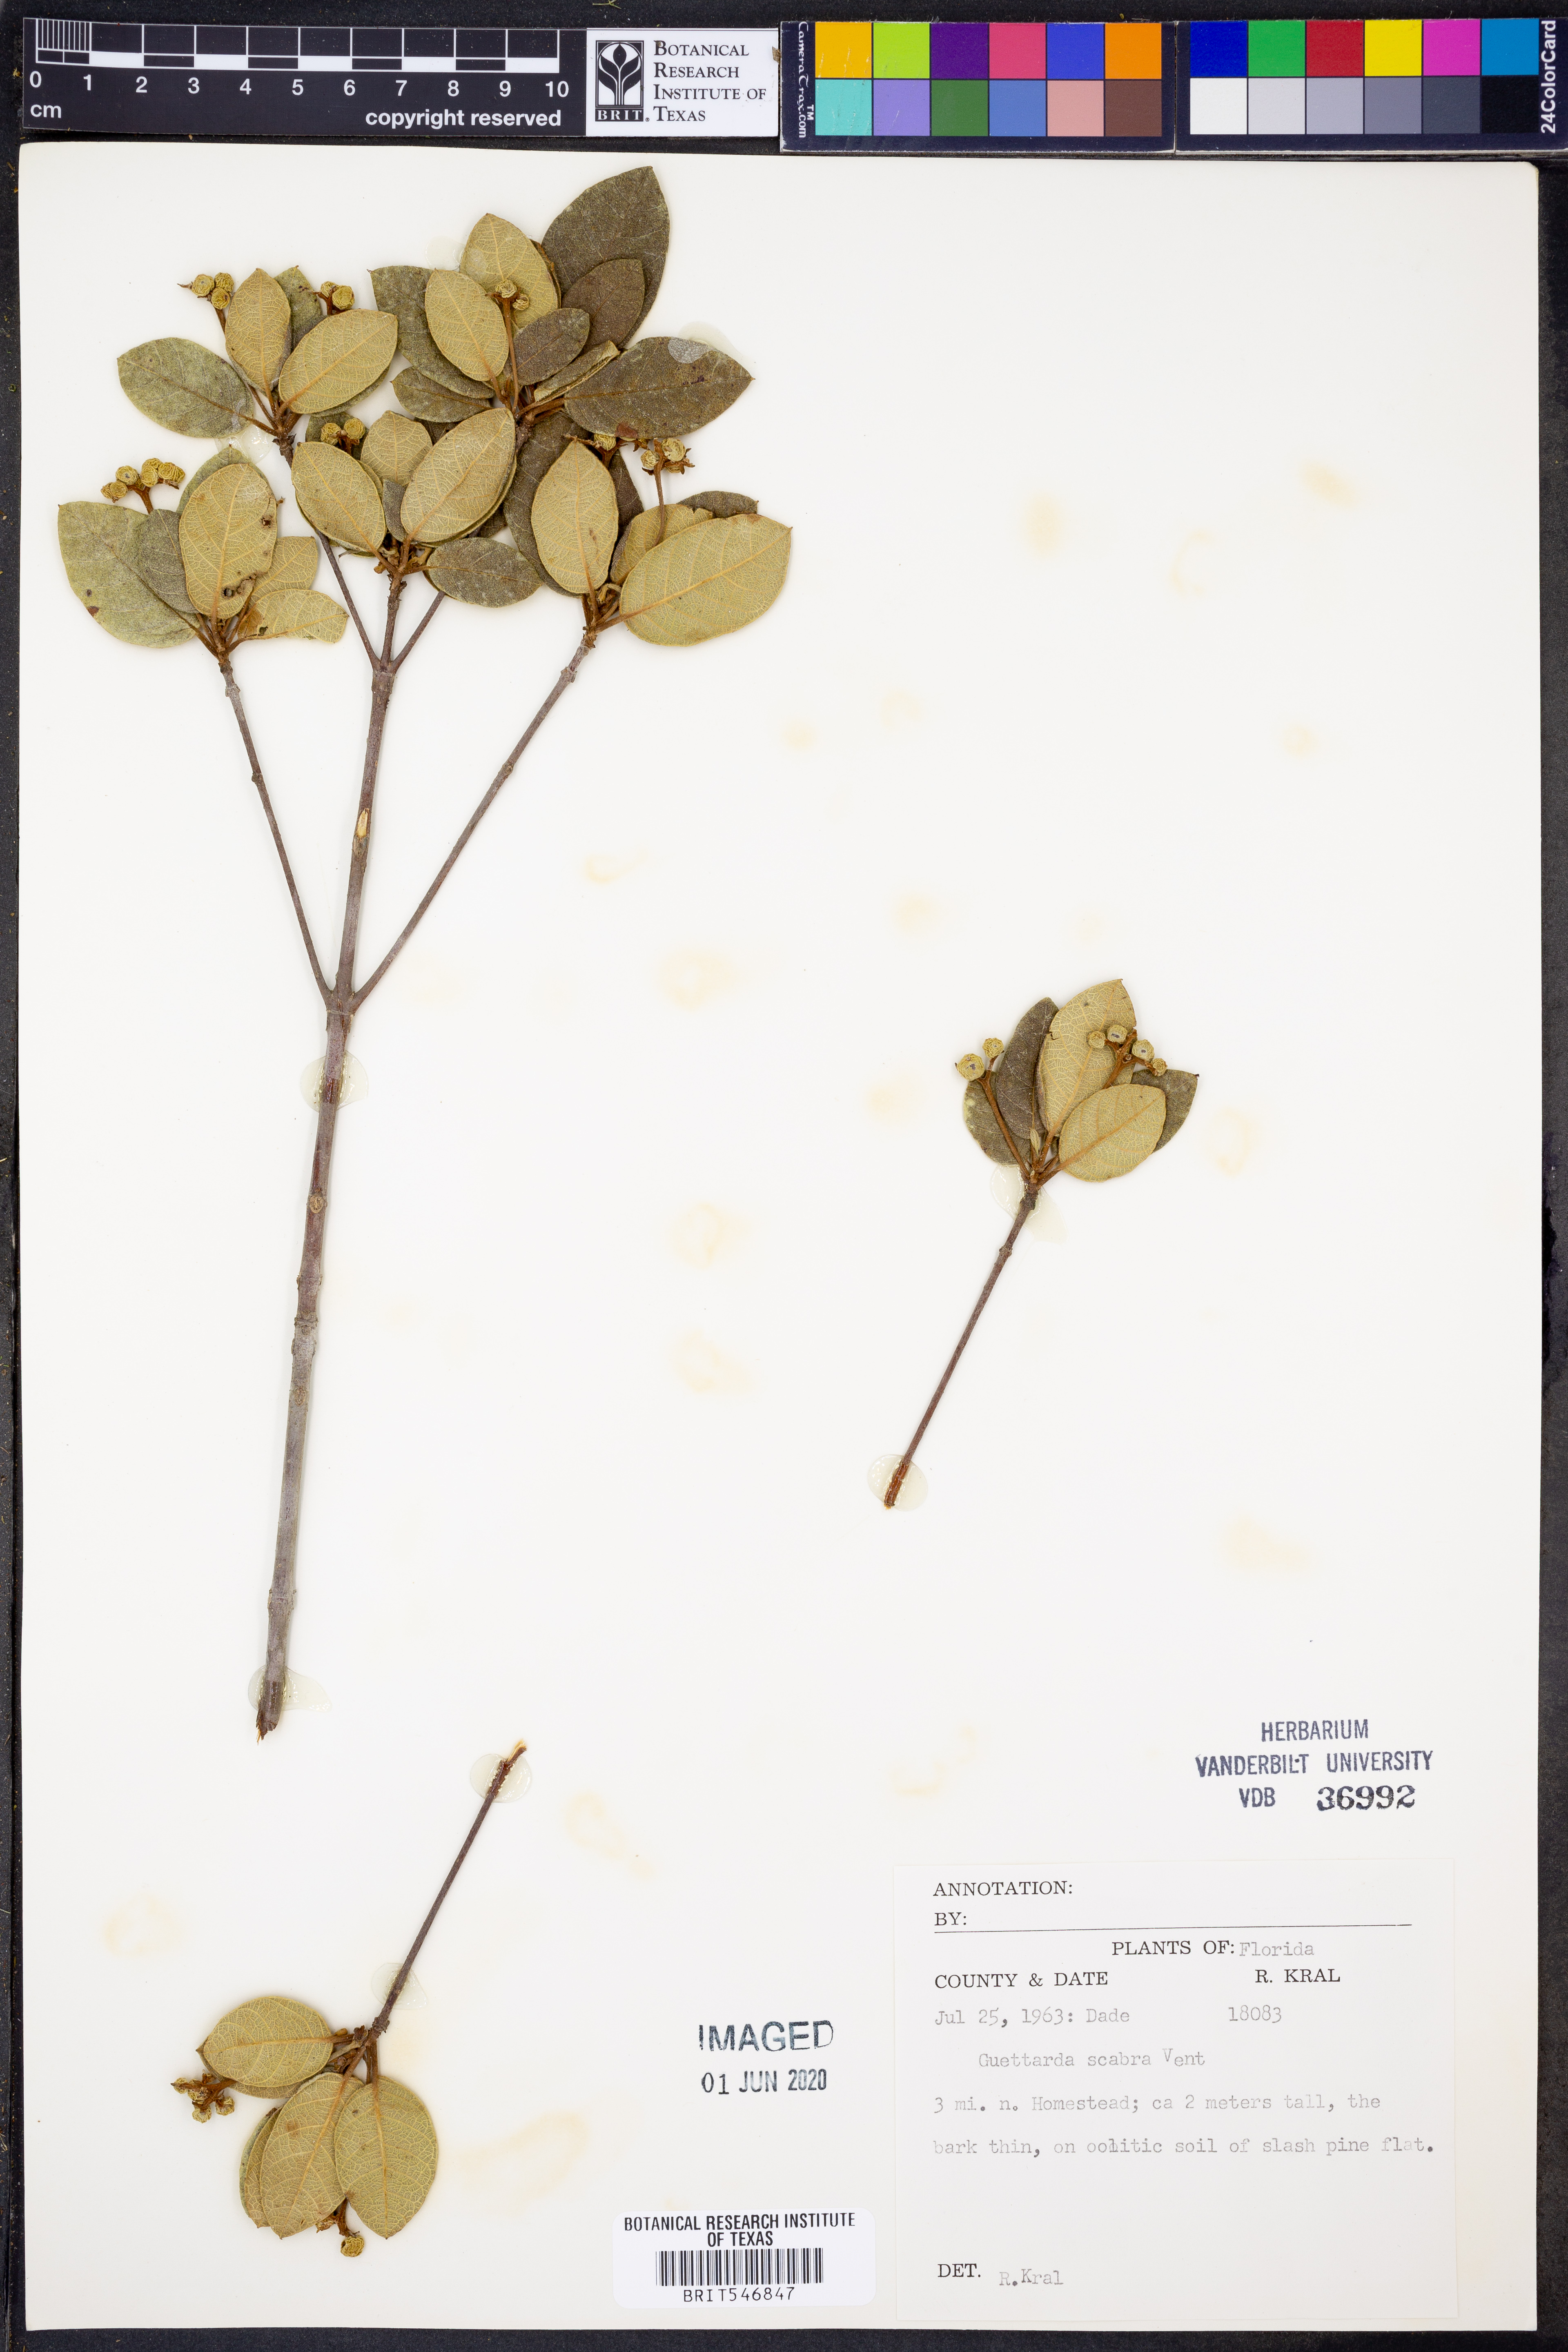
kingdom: Plantae
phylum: Tracheophyta
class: Magnoliopsida
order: Gentianales
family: Rubiaceae
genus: Guettarda
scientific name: Guettarda scabra
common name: Pigeon bay
